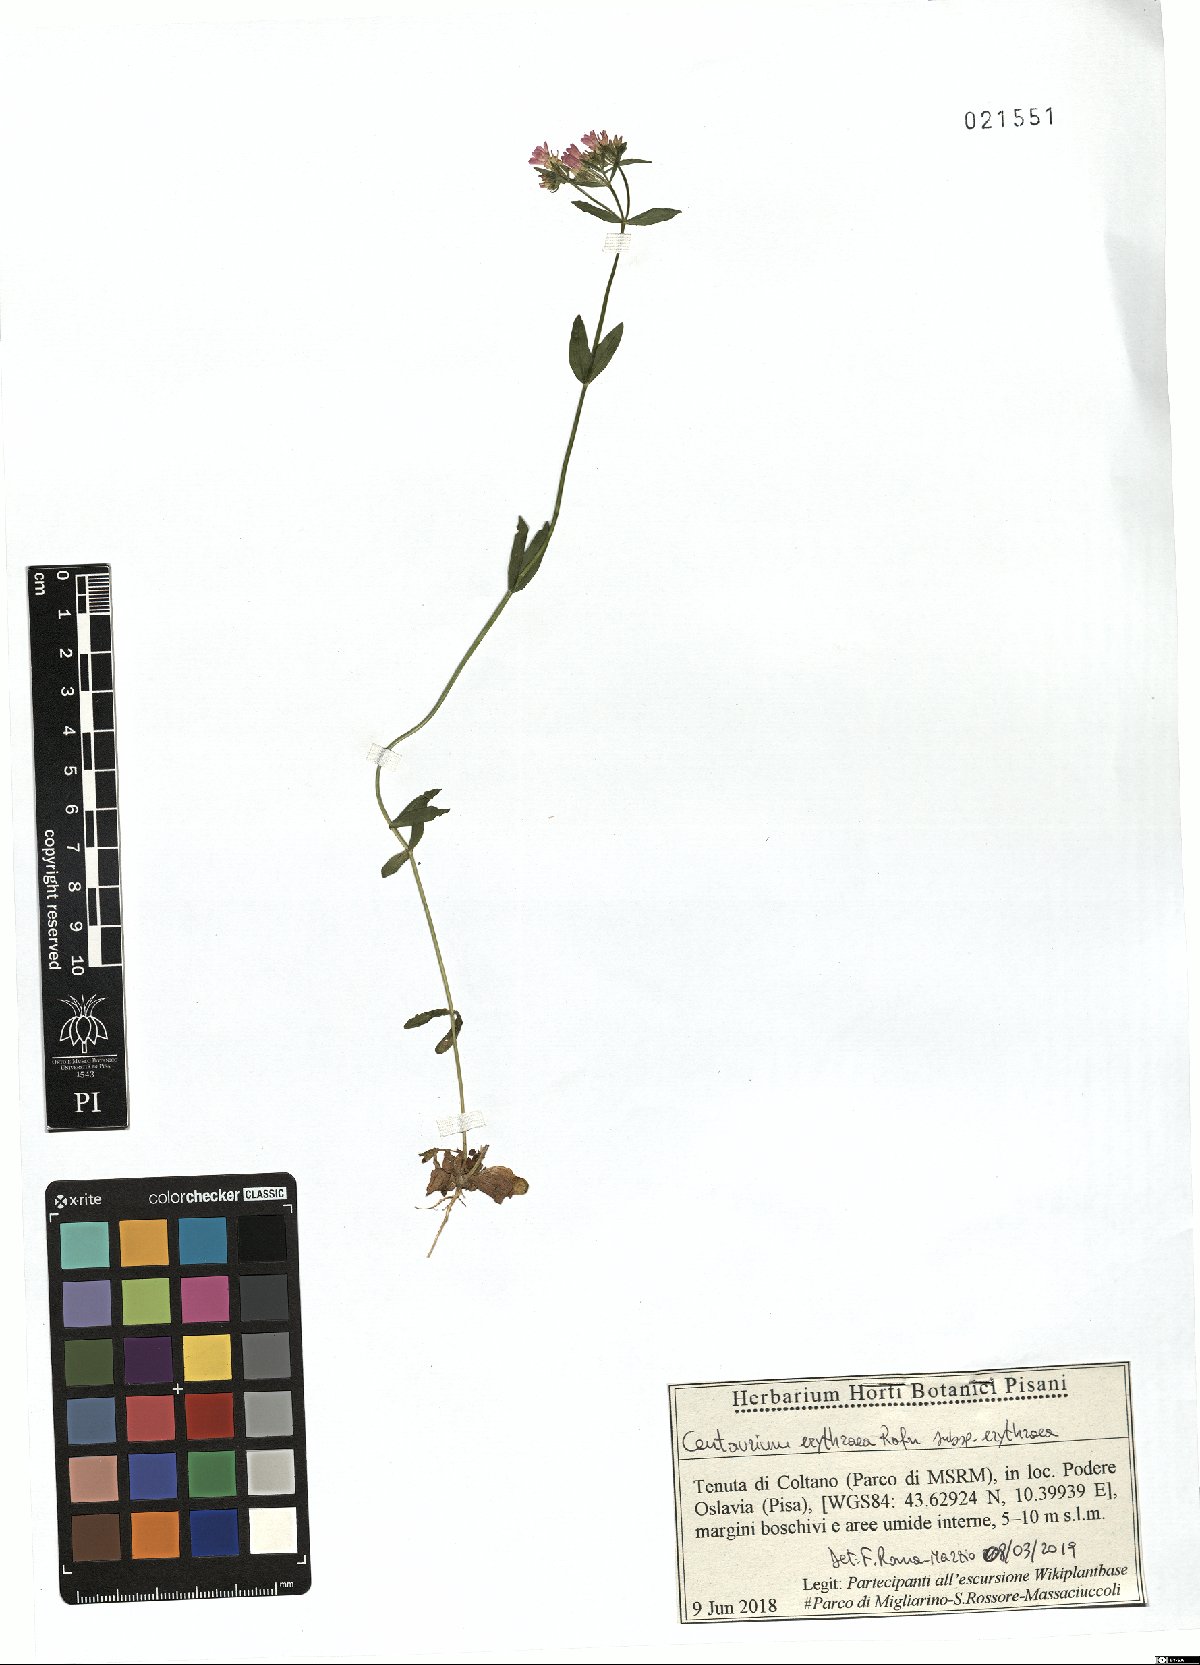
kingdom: Plantae
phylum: Tracheophyta
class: Magnoliopsida
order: Gentianales
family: Gentianaceae
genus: Centaurium
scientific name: Centaurium erythraea
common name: Common centaury
